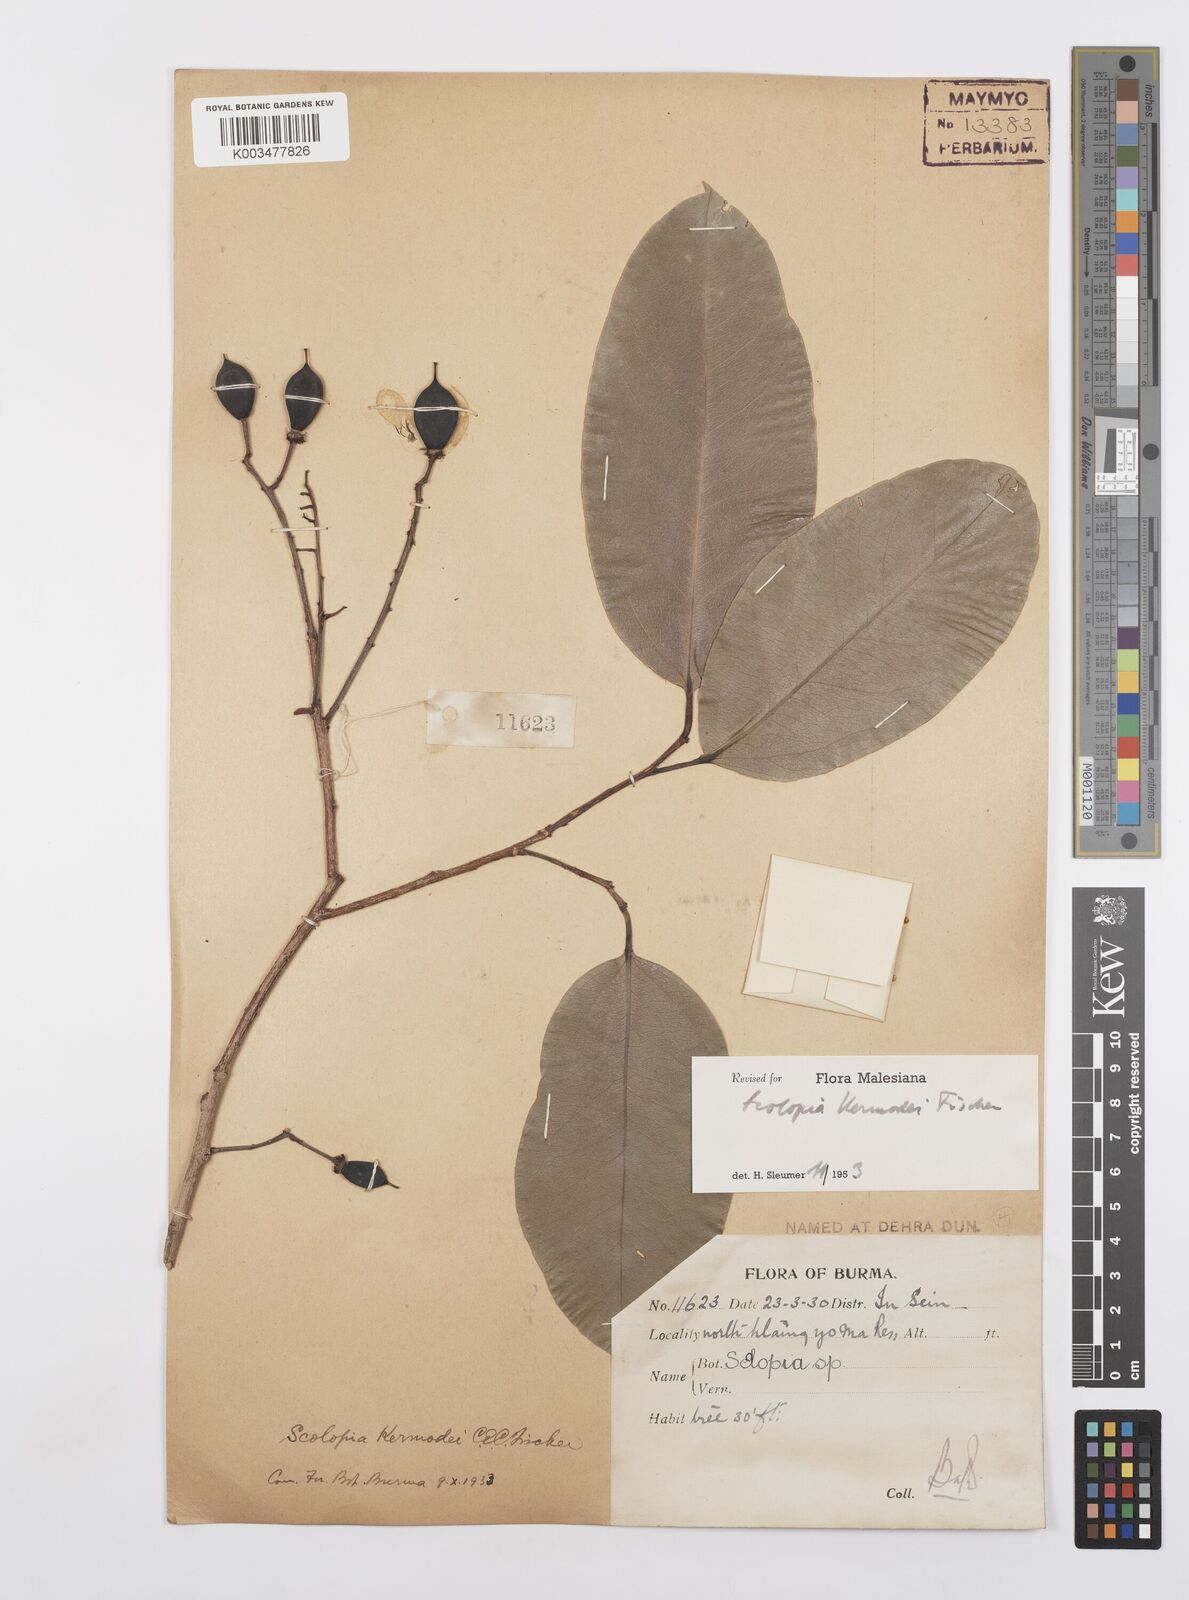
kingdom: Plantae
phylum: Tracheophyta
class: Magnoliopsida
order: Malpighiales
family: Salicaceae
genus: Scolopia
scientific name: Scolopia kermodei
